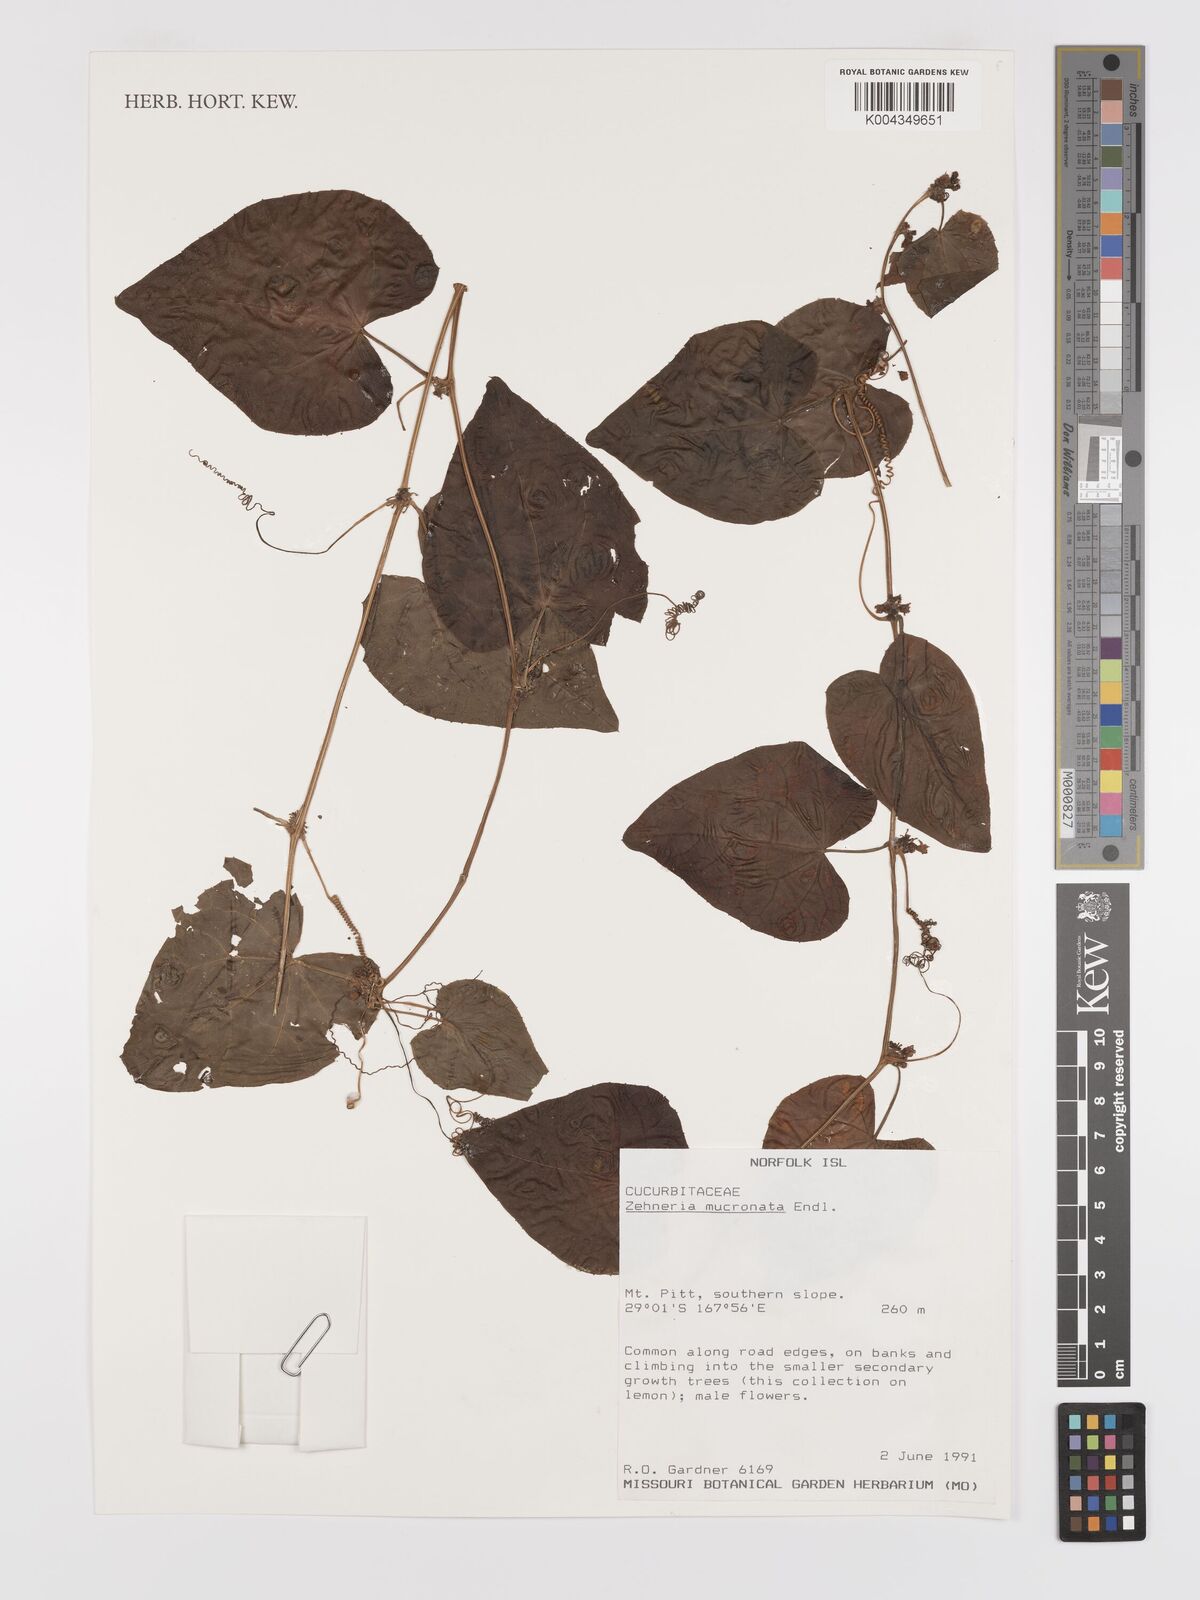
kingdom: Plantae
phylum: Tracheophyta
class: Magnoliopsida
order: Cucurbitales
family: Cucurbitaceae
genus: Zehneria
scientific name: Zehneria mucronata
